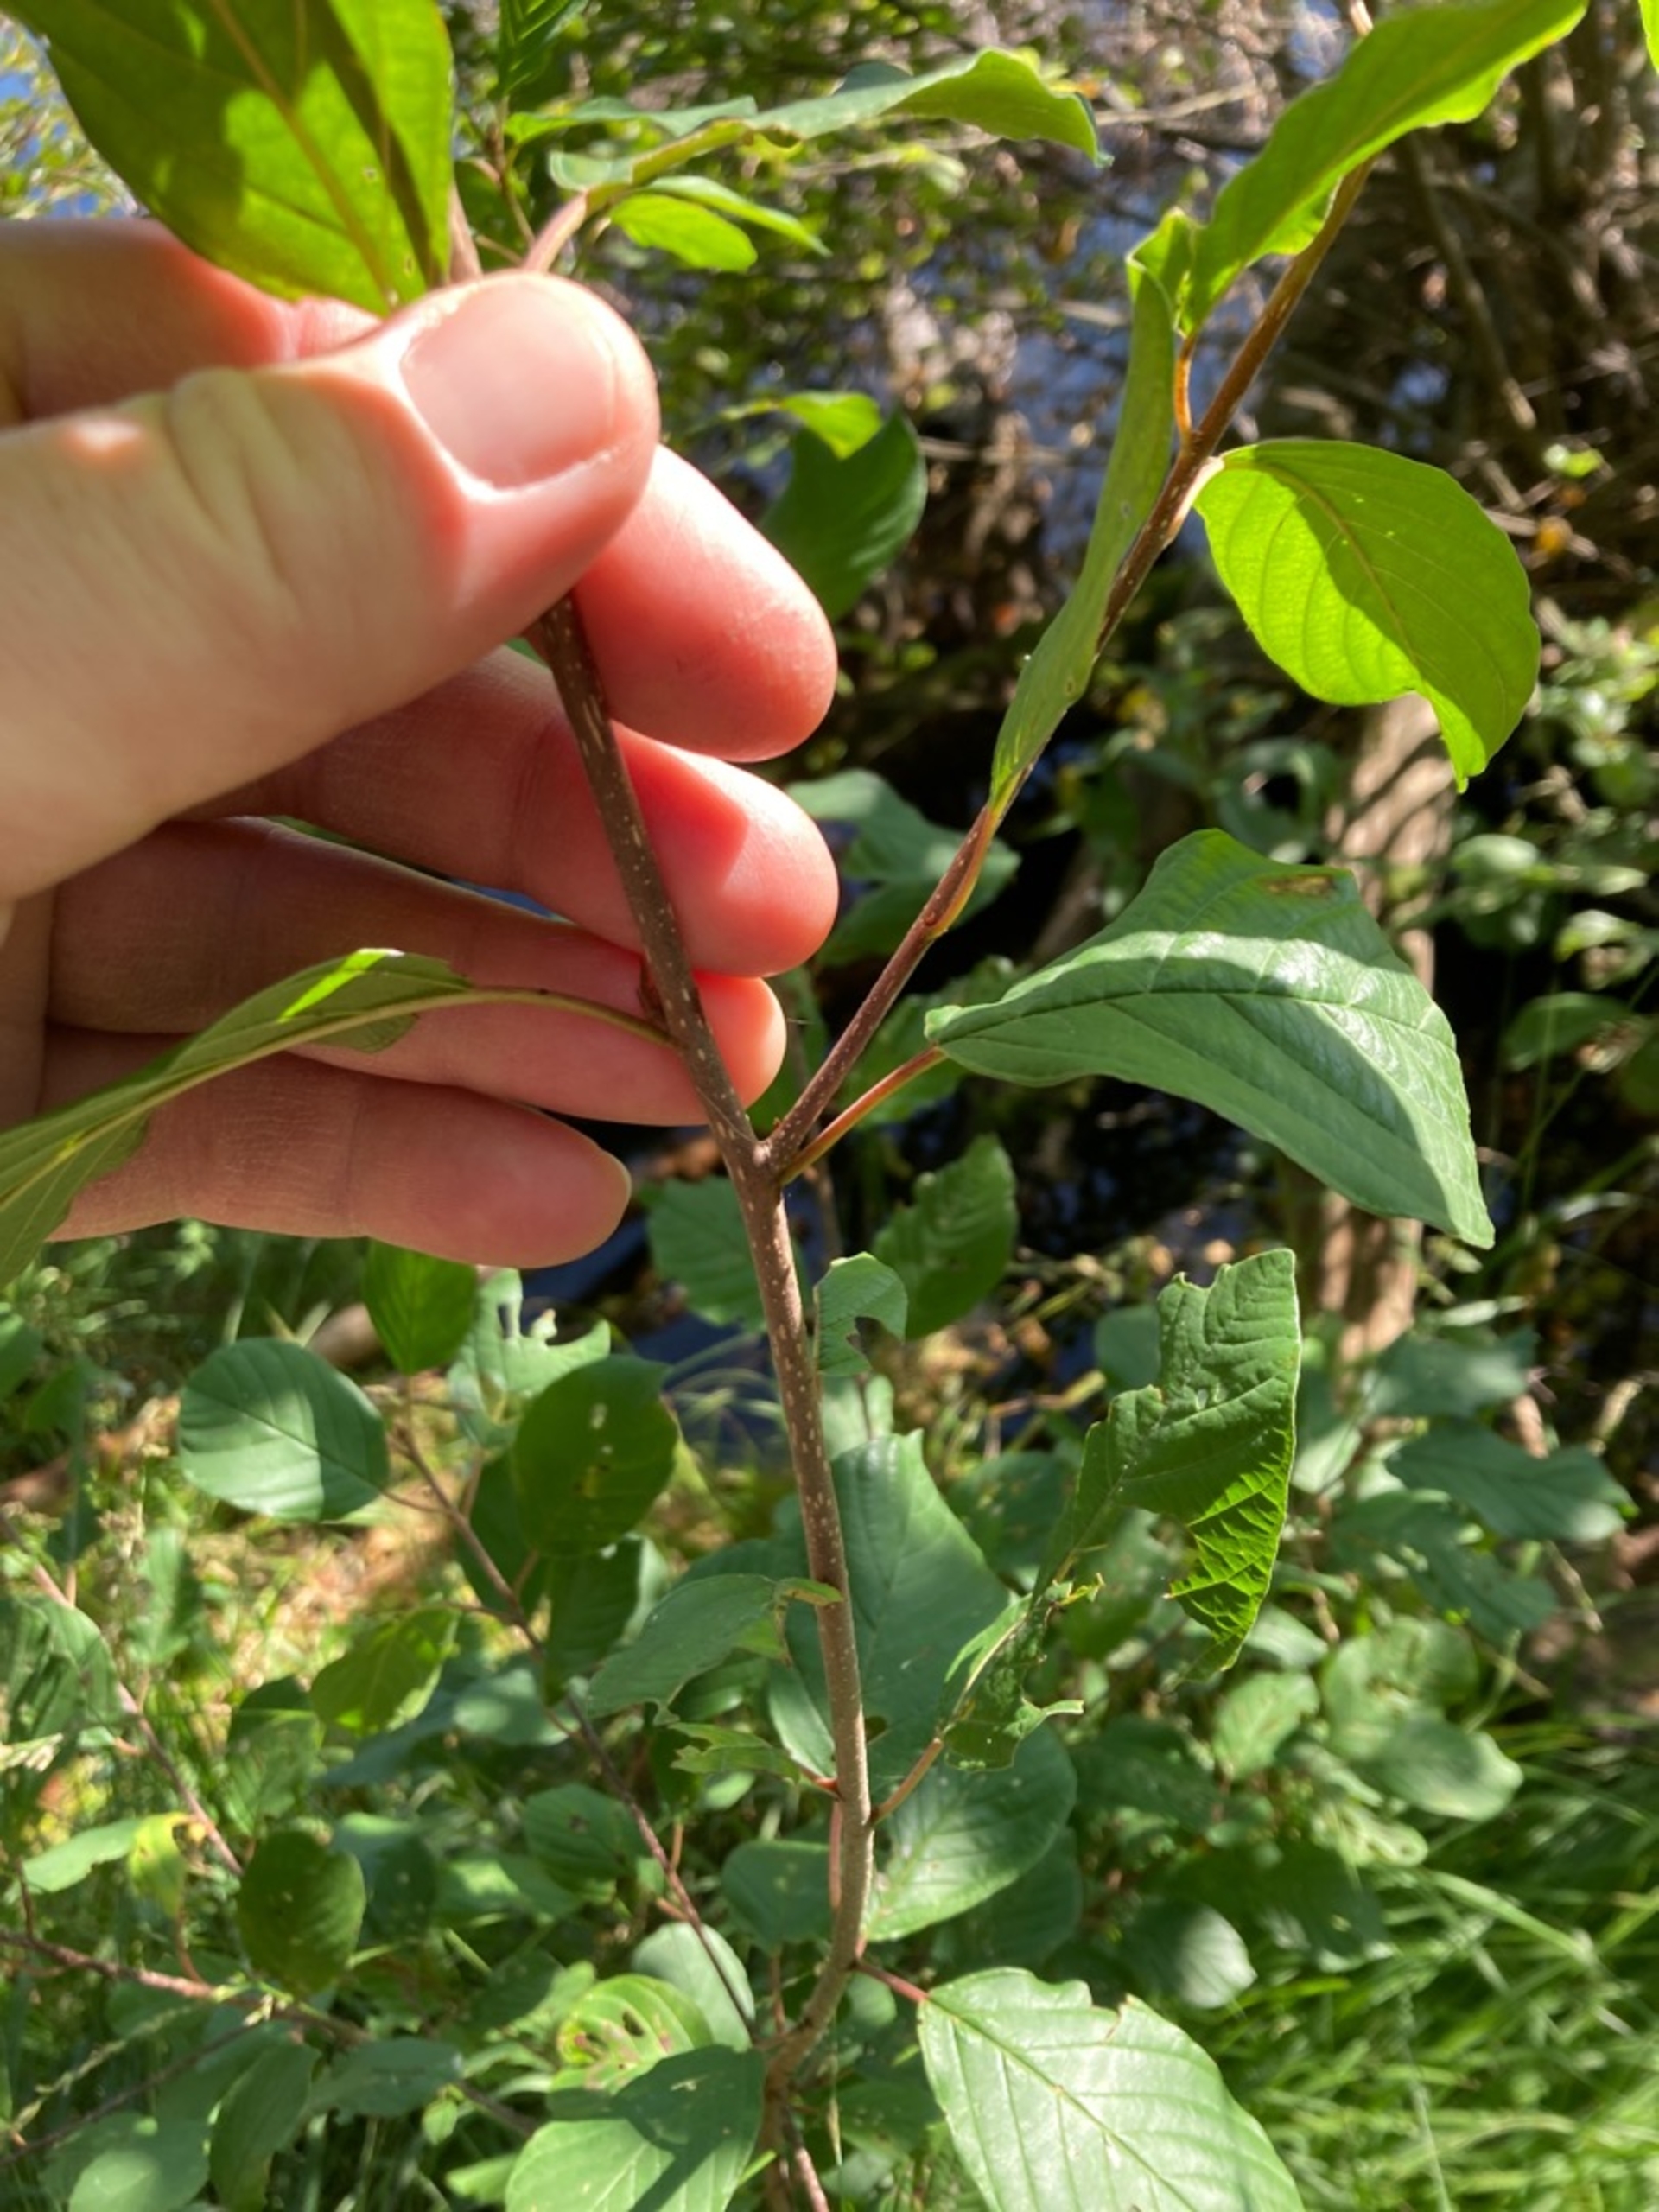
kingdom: Plantae
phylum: Tracheophyta
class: Magnoliopsida
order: Rosales
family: Rhamnaceae
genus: Frangula
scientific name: Frangula alnus
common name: Tørst
